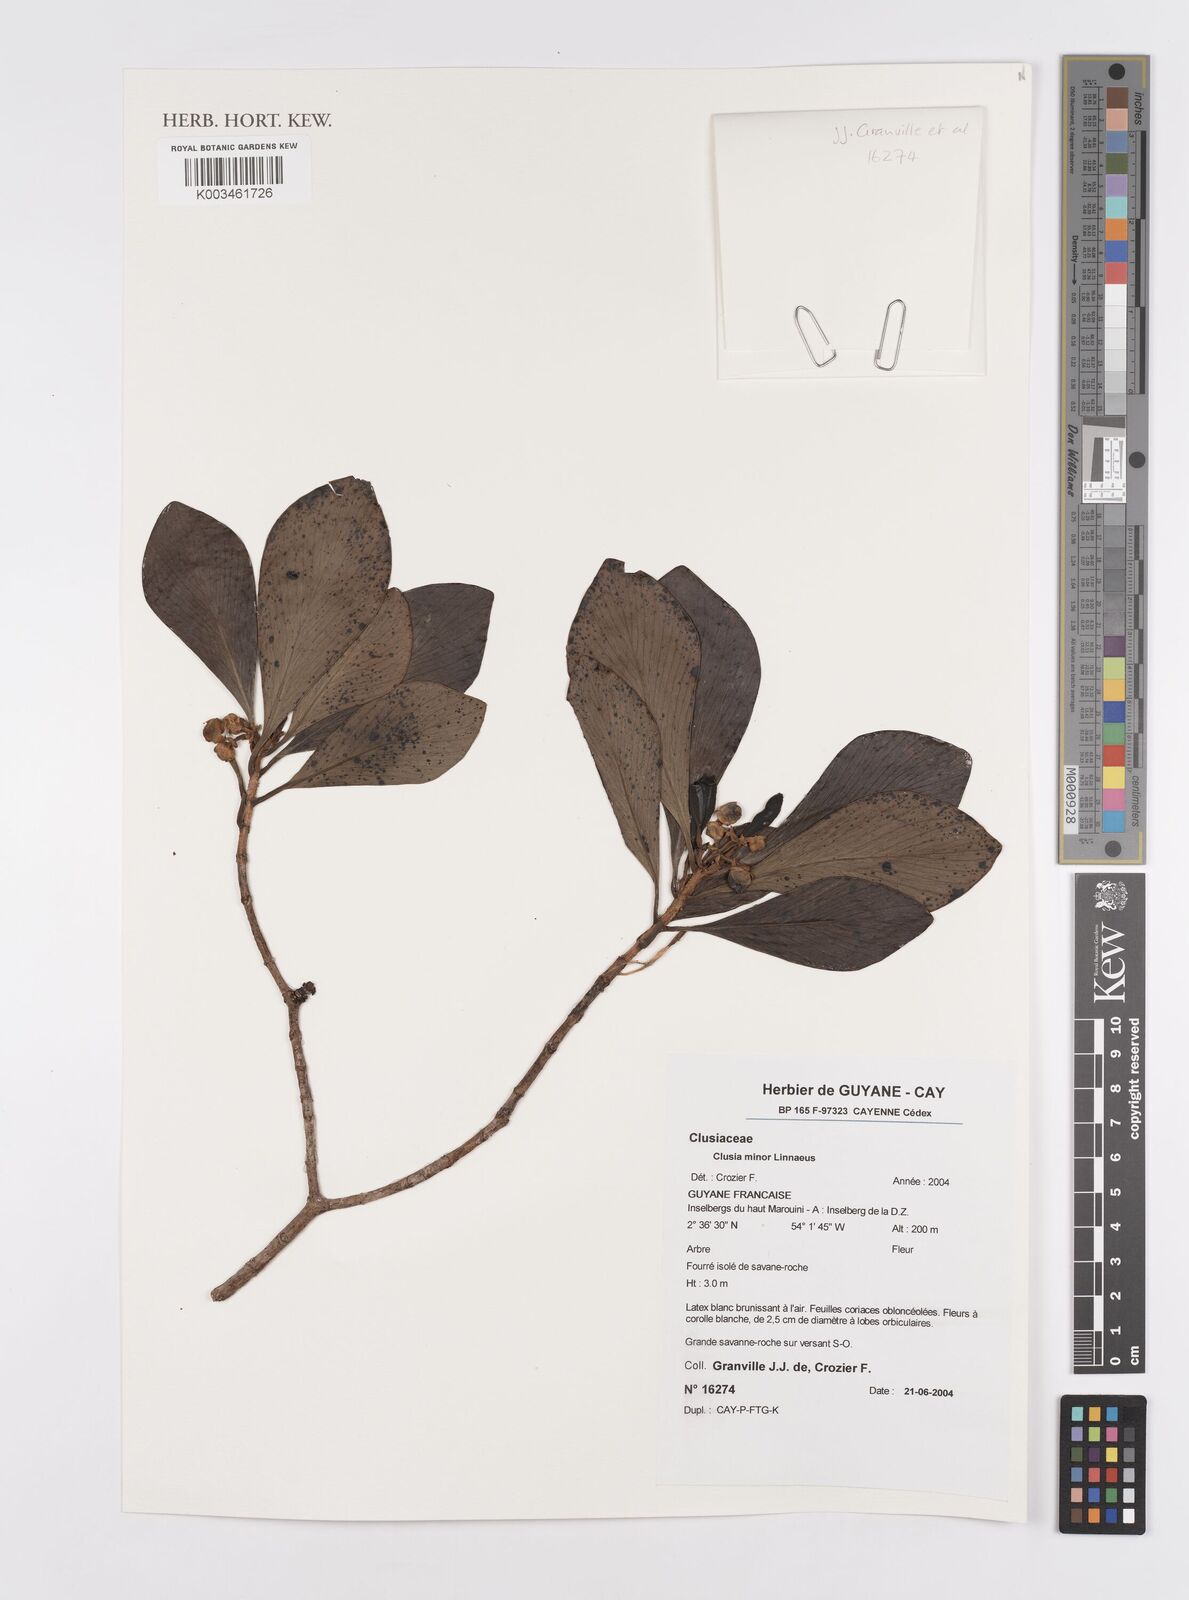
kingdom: Plantae
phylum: Tracheophyta
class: Magnoliopsida
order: Malpighiales
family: Clusiaceae
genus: Clusia
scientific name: Clusia minor
